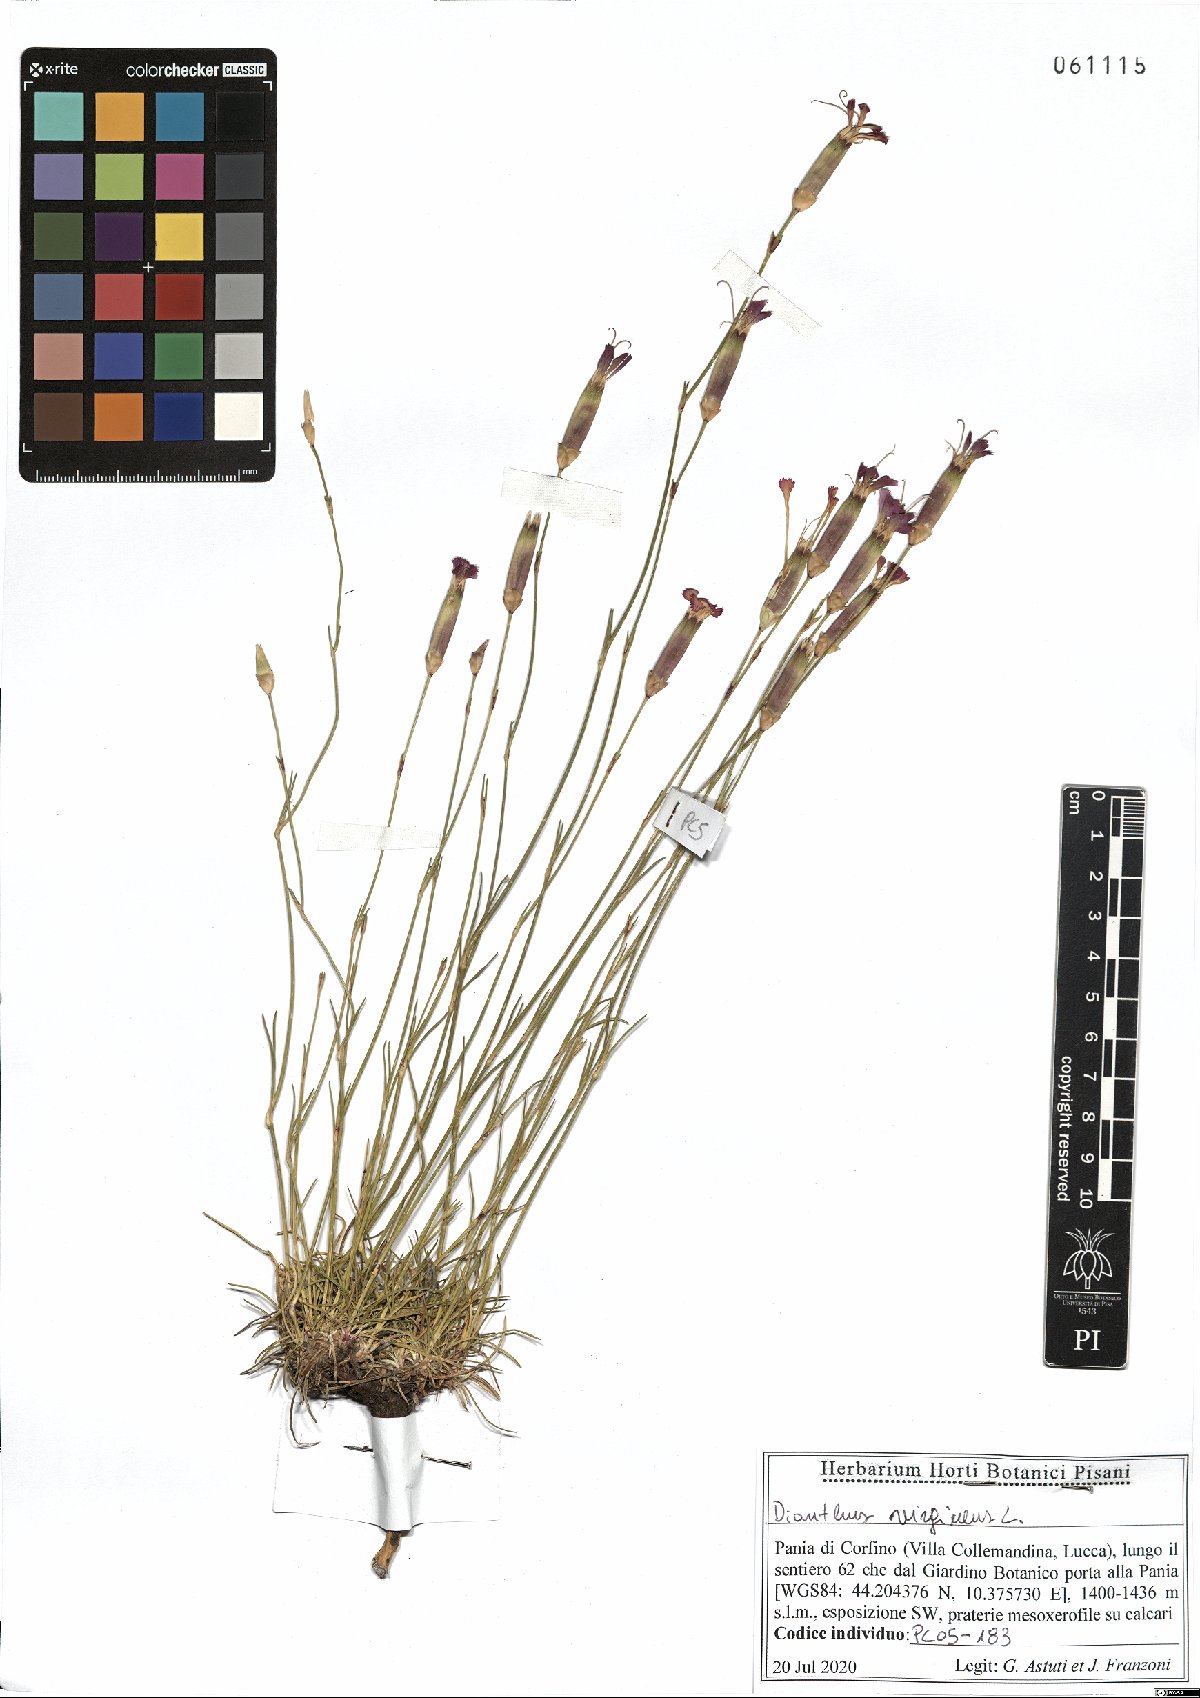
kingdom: Plantae
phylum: Tracheophyta
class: Magnoliopsida
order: Caryophyllales
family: Caryophyllaceae
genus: Dianthus
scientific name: Dianthus virgineus
